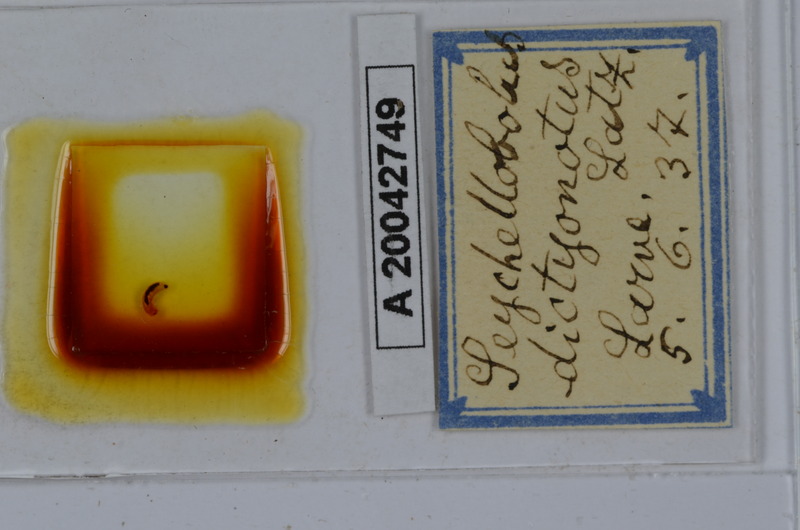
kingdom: Animalia
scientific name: Animalia
